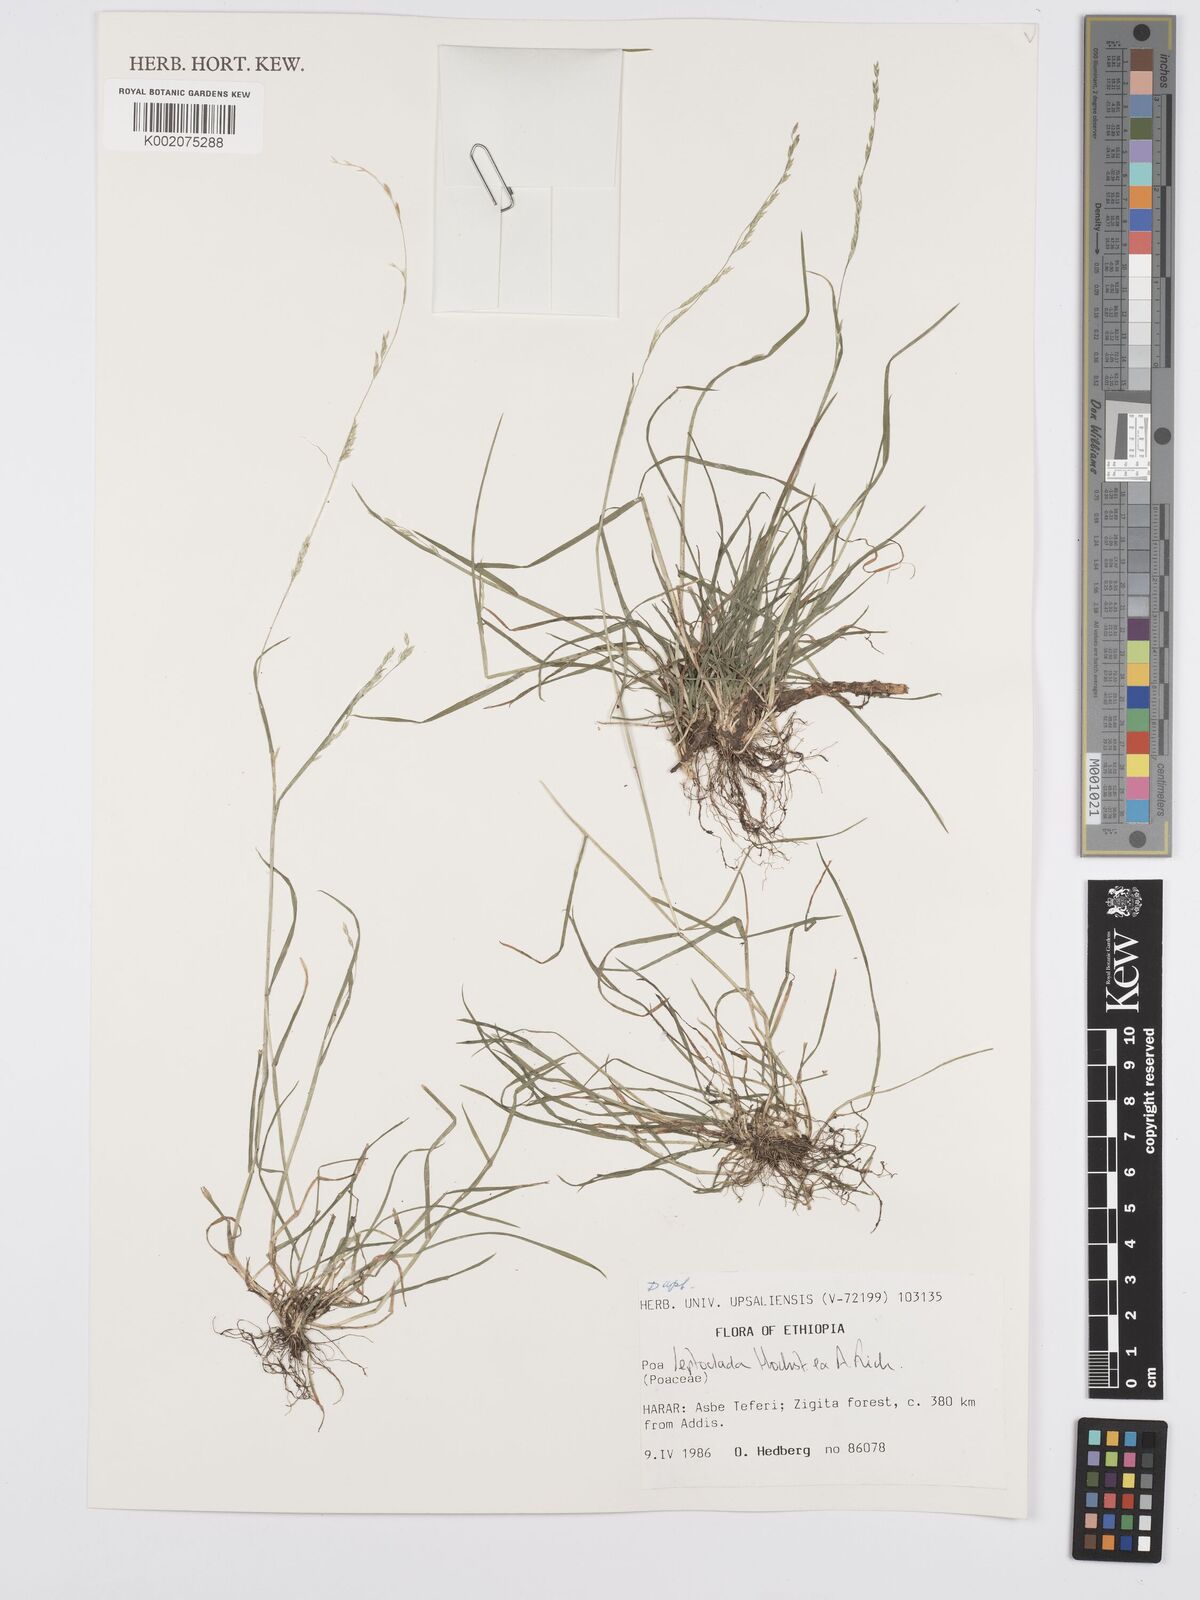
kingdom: Plantae
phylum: Tracheophyta
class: Liliopsida
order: Poales
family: Poaceae
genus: Poa
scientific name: Poa leptoclada
